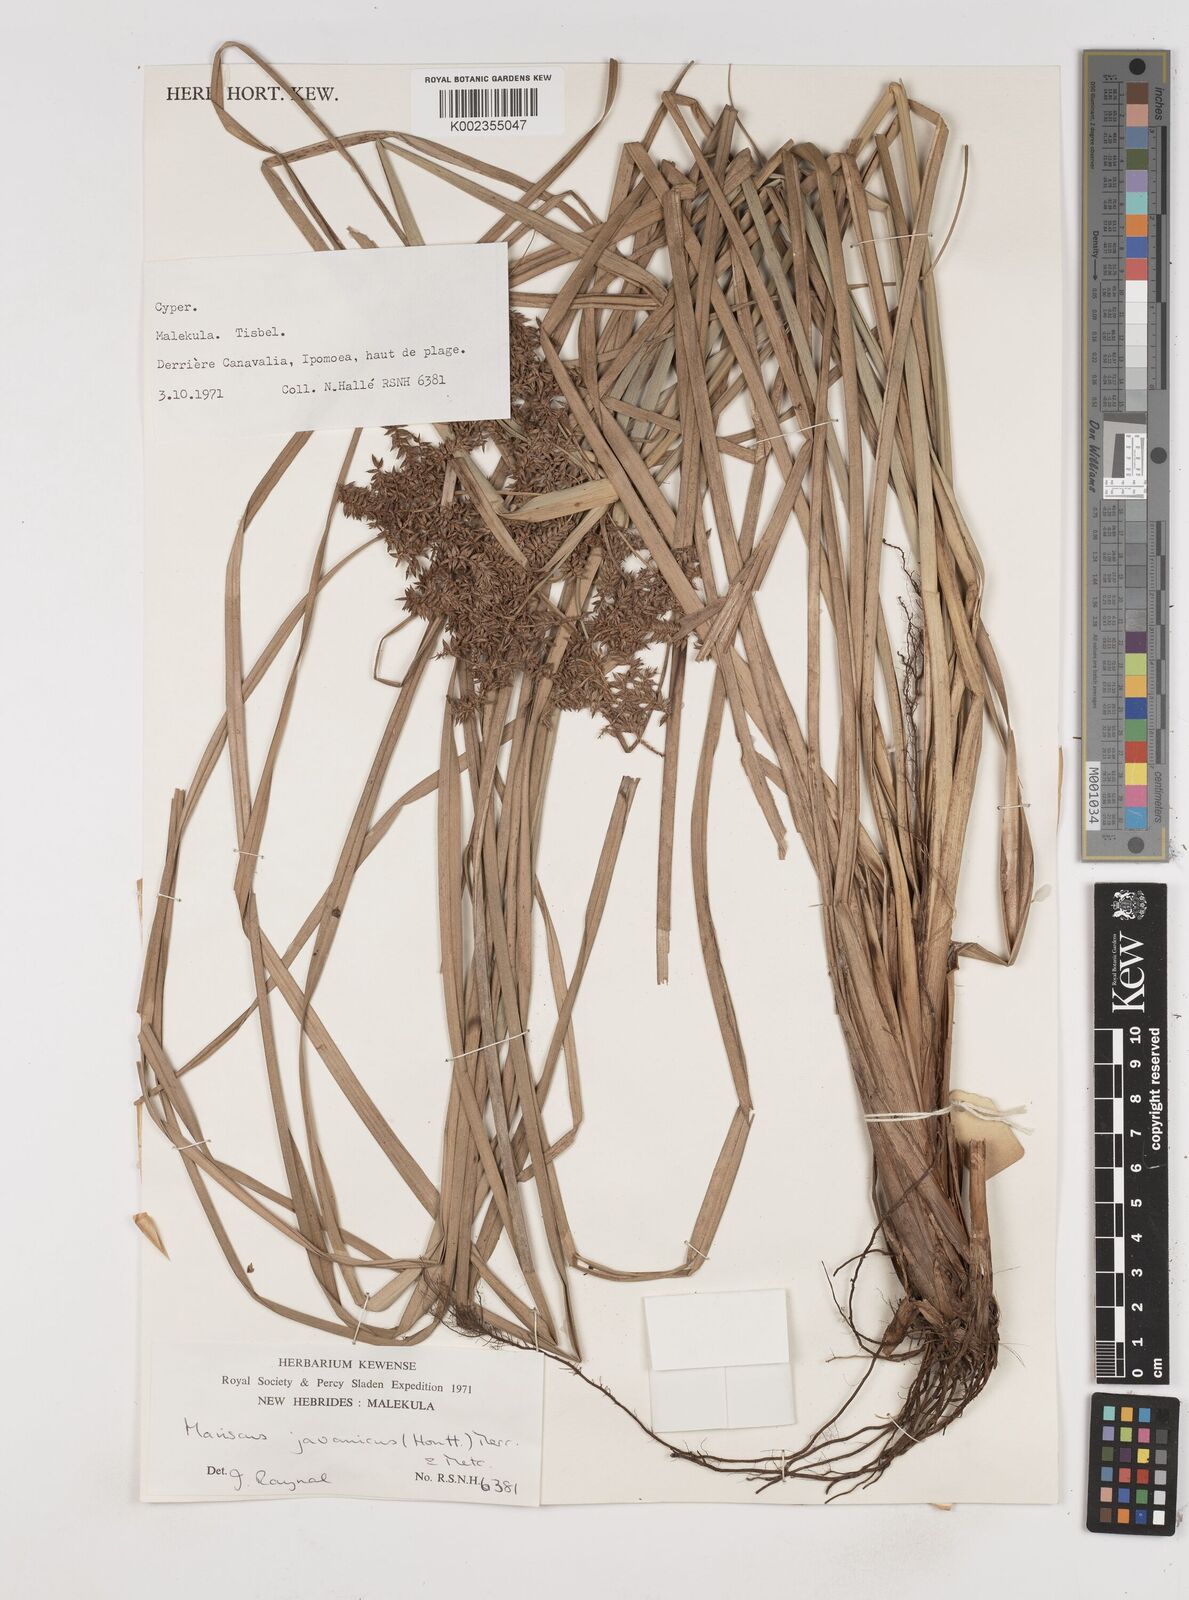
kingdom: Plantae
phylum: Tracheophyta
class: Liliopsida
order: Poales
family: Cyperaceae
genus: Cyperus
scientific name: Cyperus javanicus
